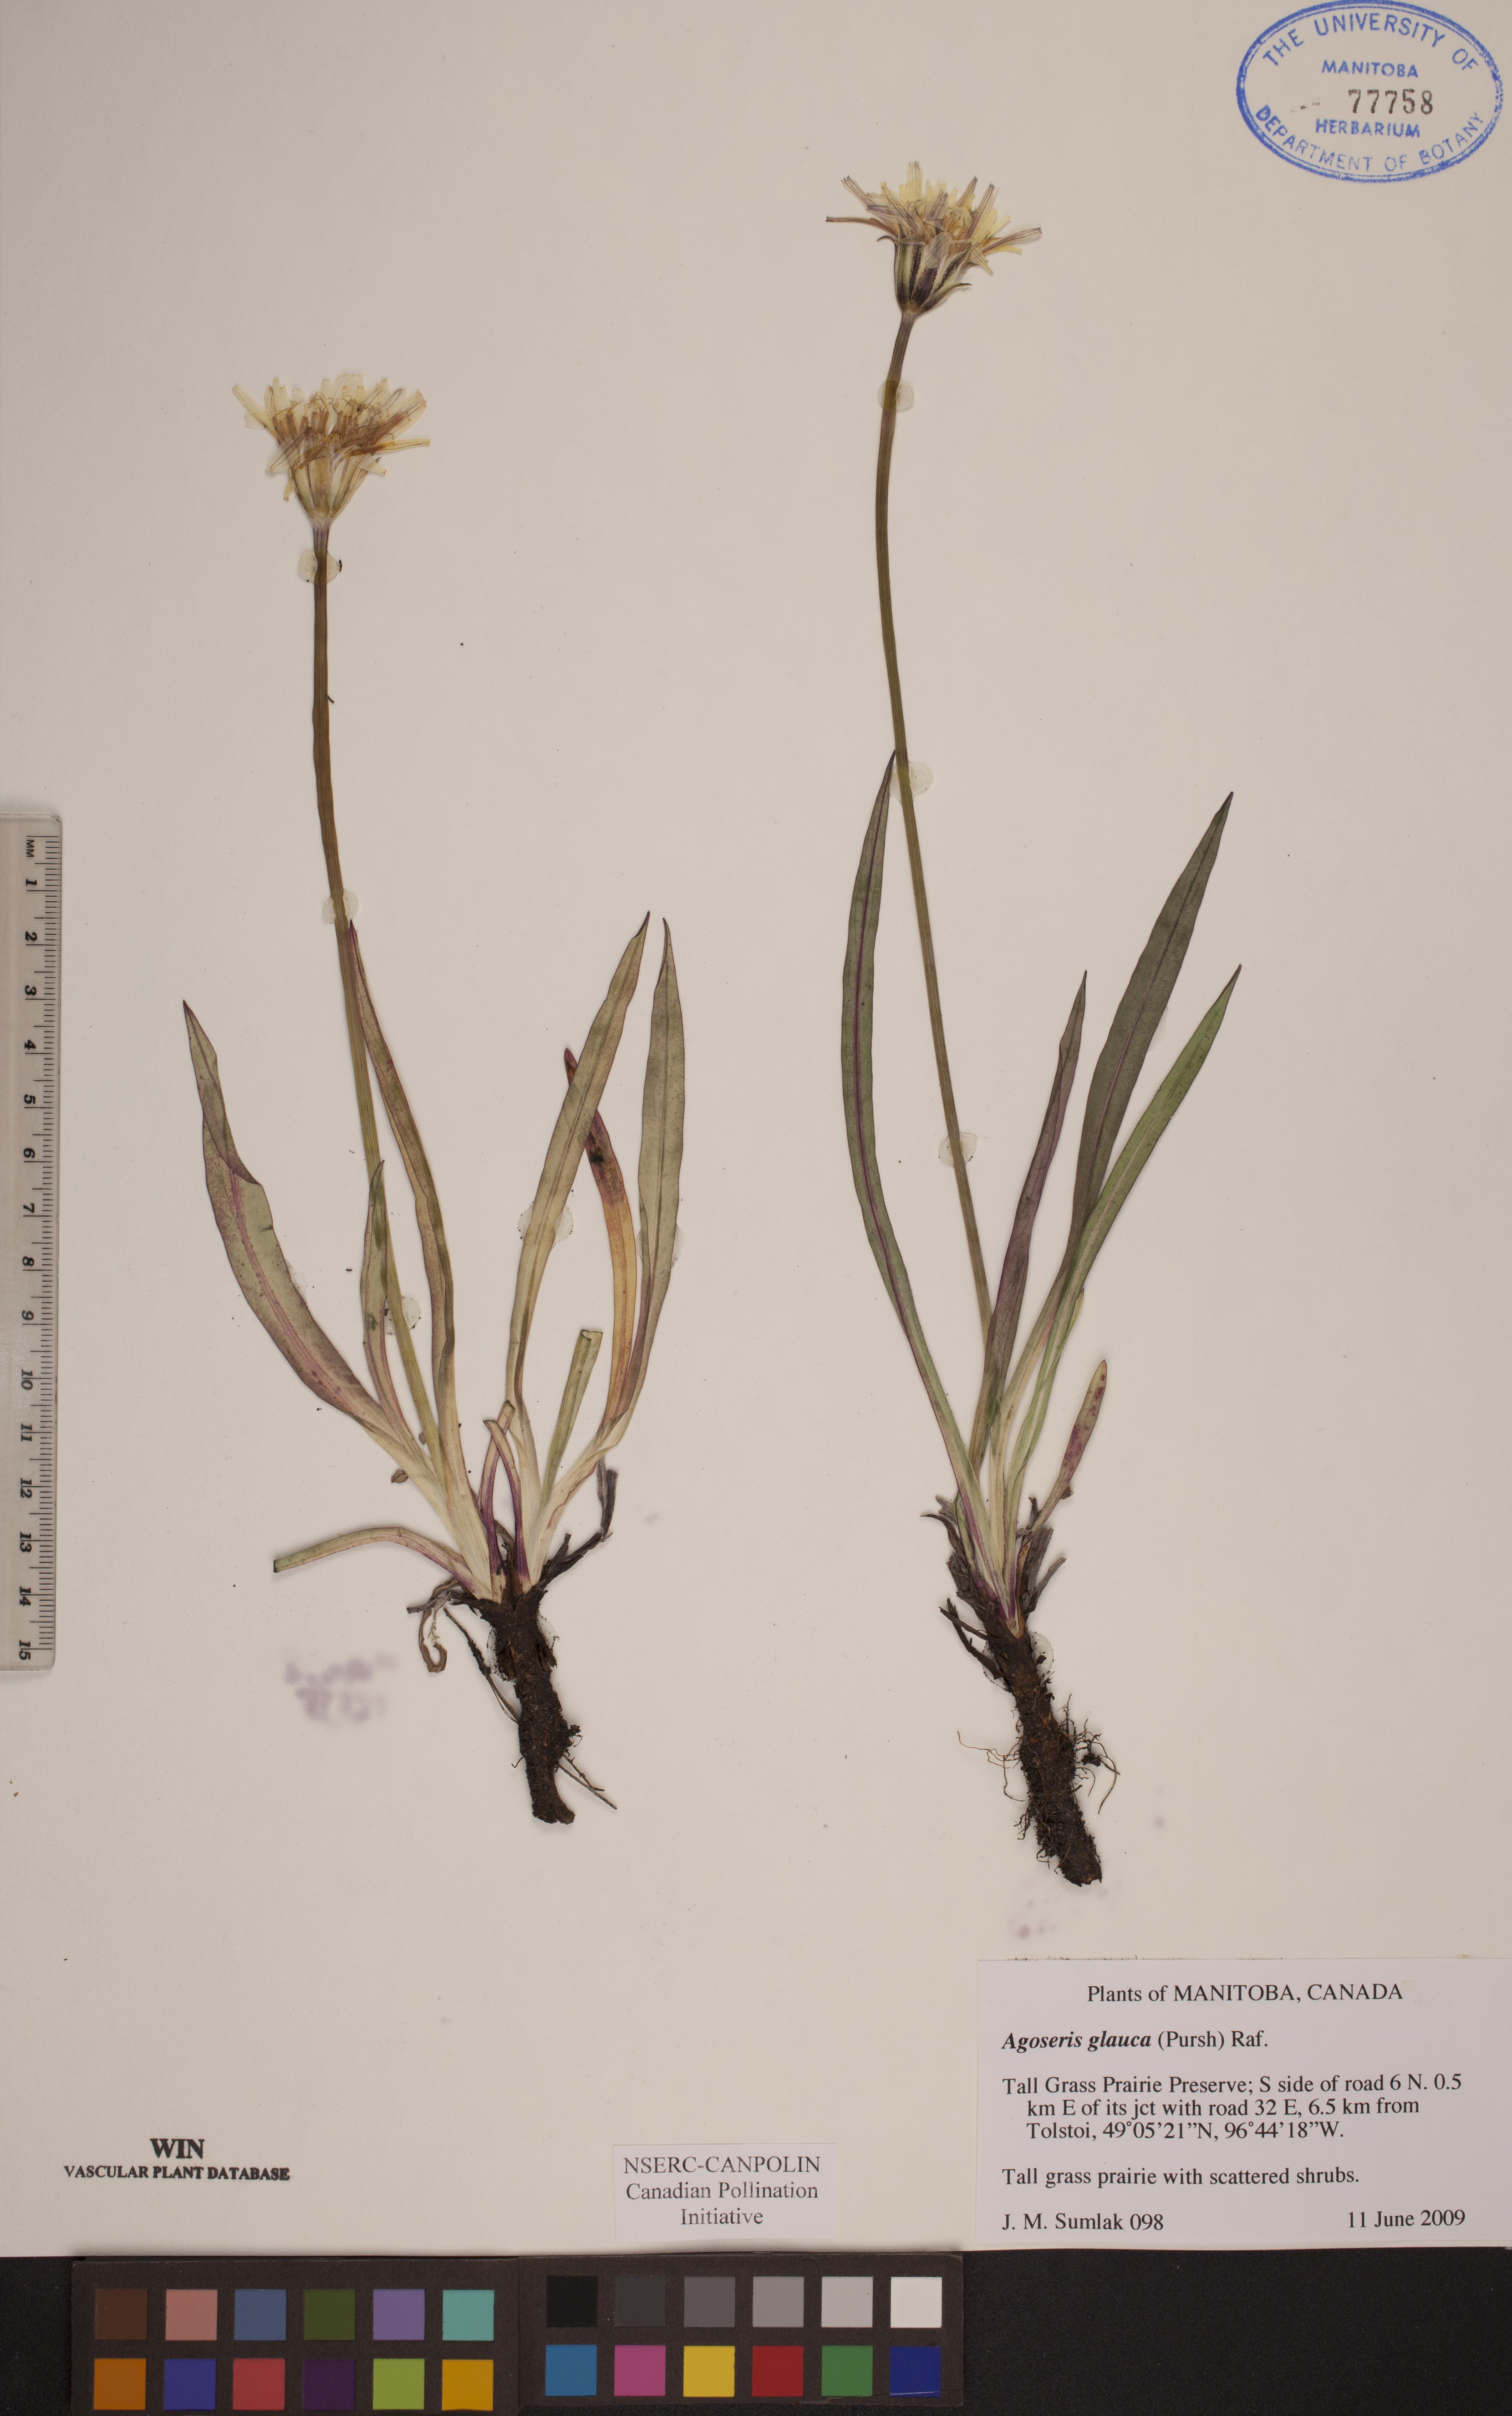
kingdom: Plantae
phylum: Tracheophyta
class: Magnoliopsida
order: Asterales
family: Asteraceae
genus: Agoseris
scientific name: Agoseris glauca
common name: Prairie agoseris
